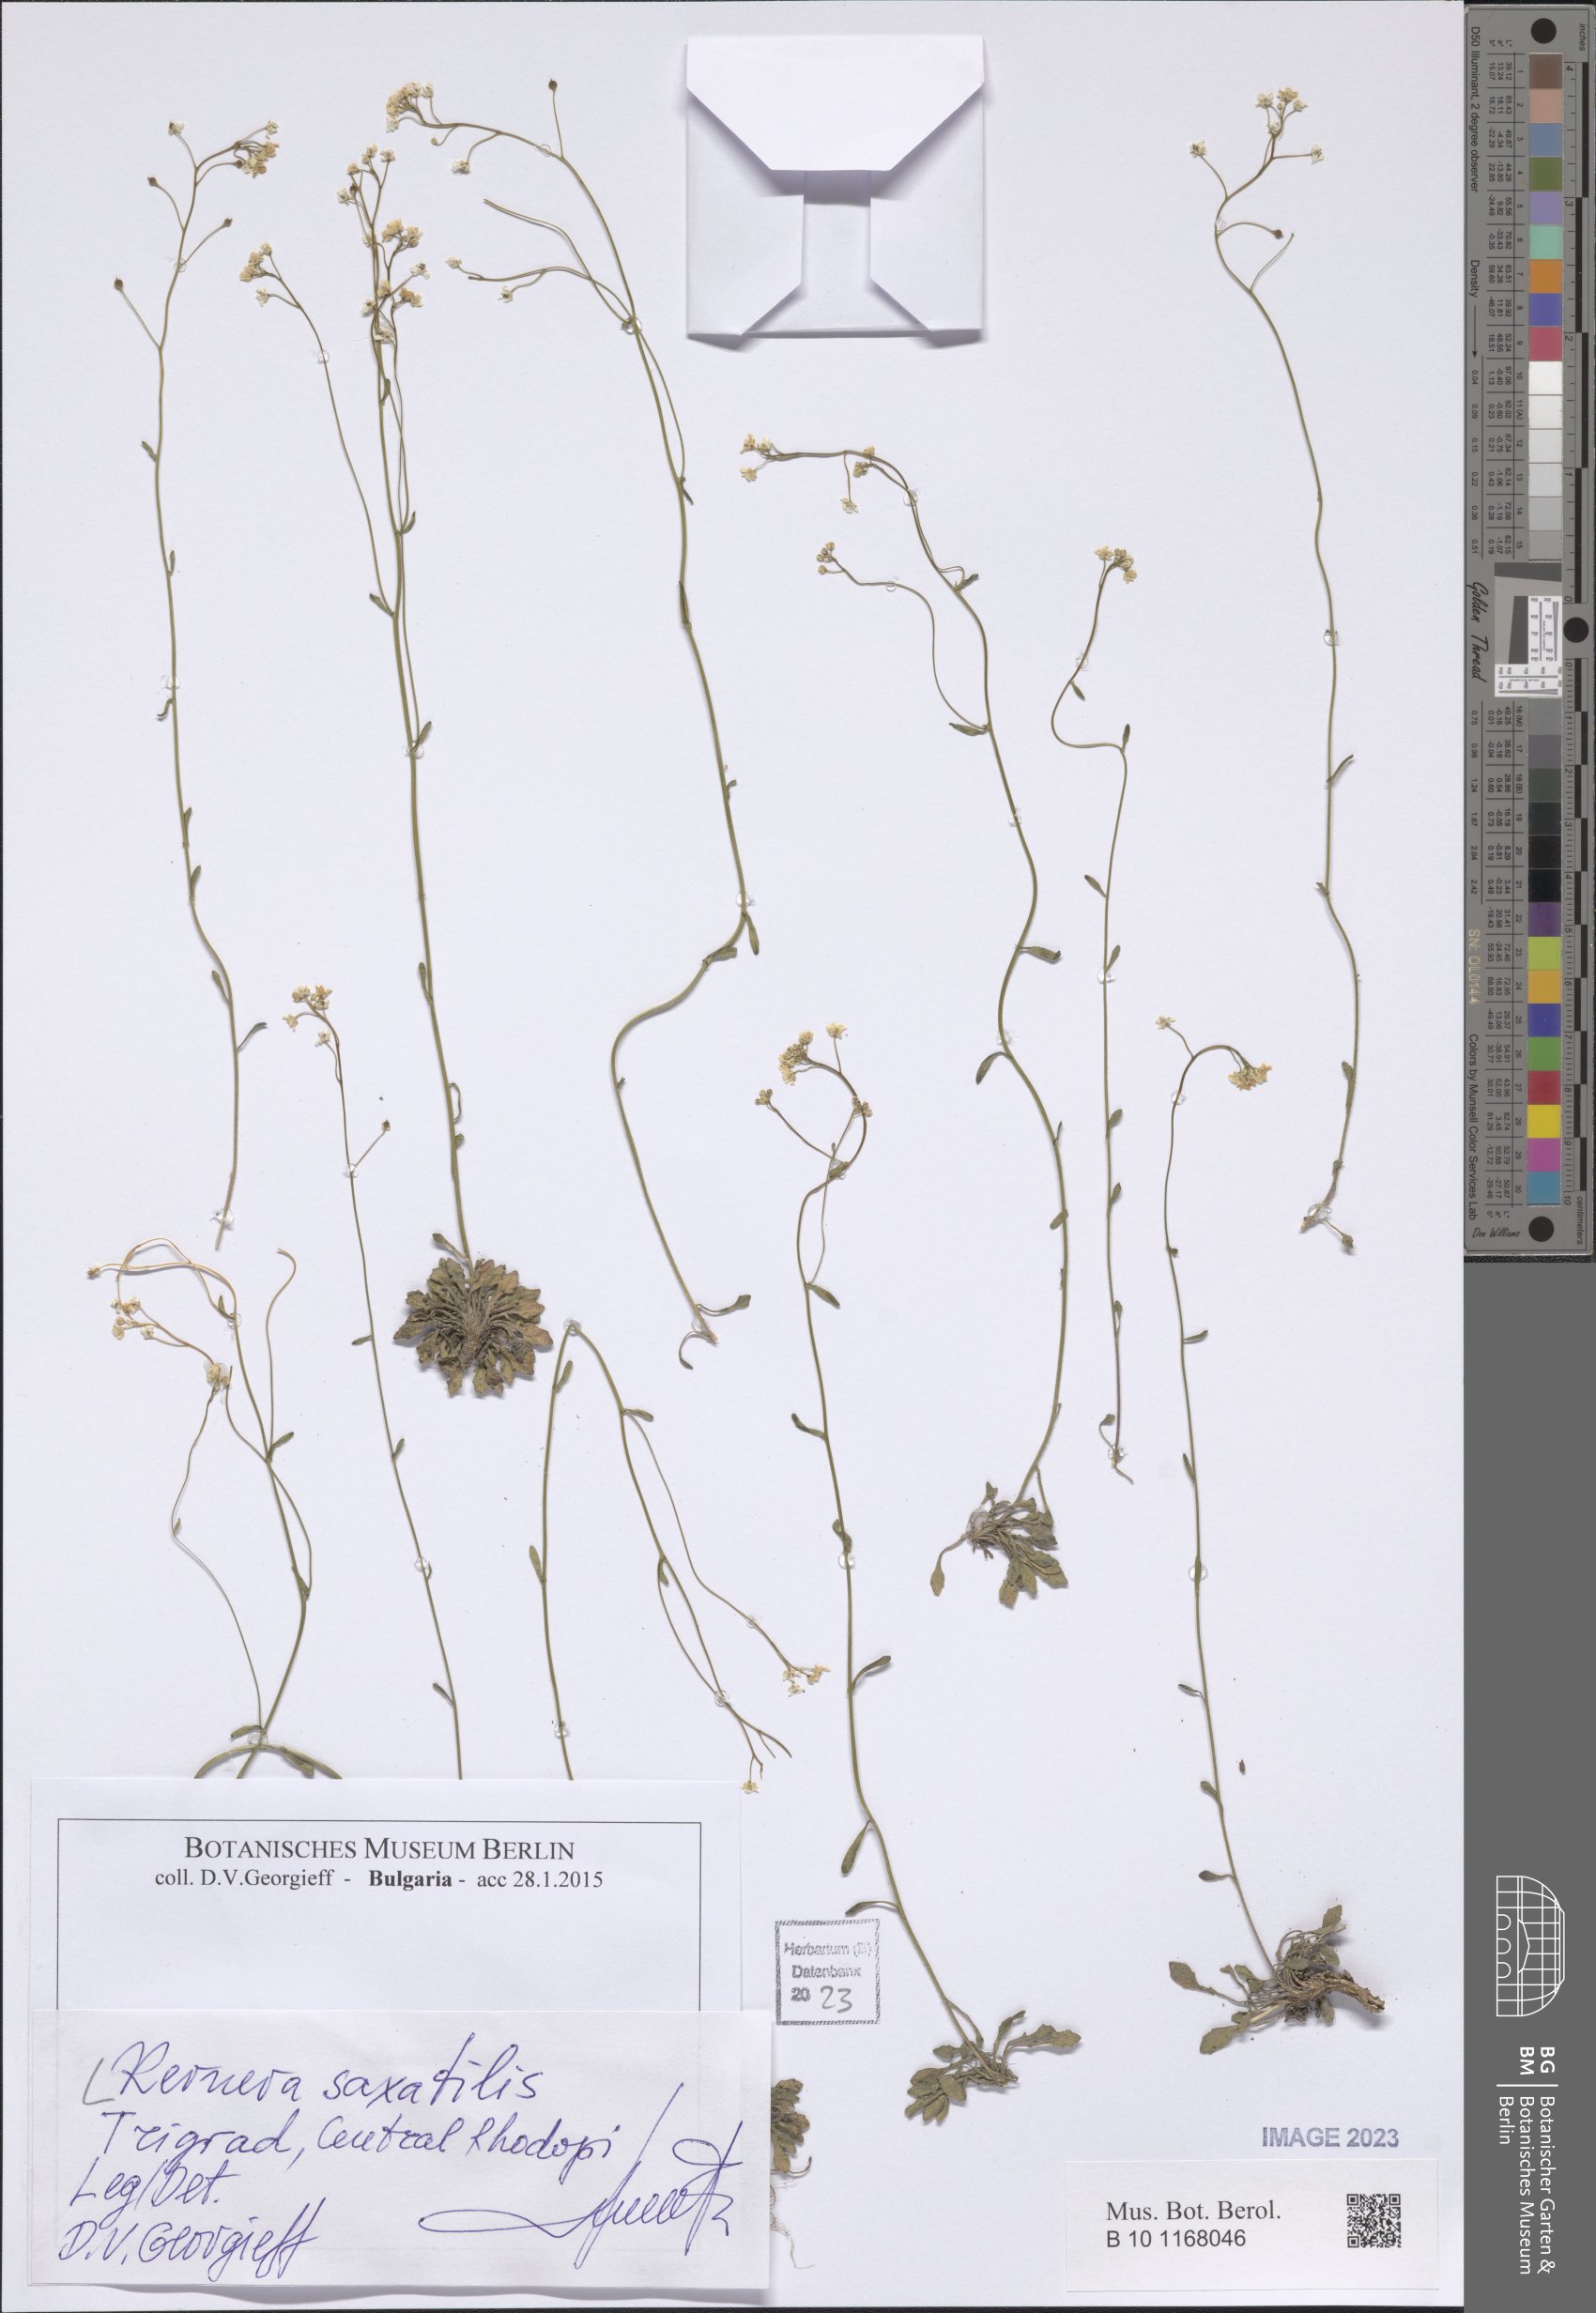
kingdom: Plantae
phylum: Tracheophyta
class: Magnoliopsida
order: Brassicales
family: Brassicaceae
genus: Kernera
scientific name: Kernera saxatilis
